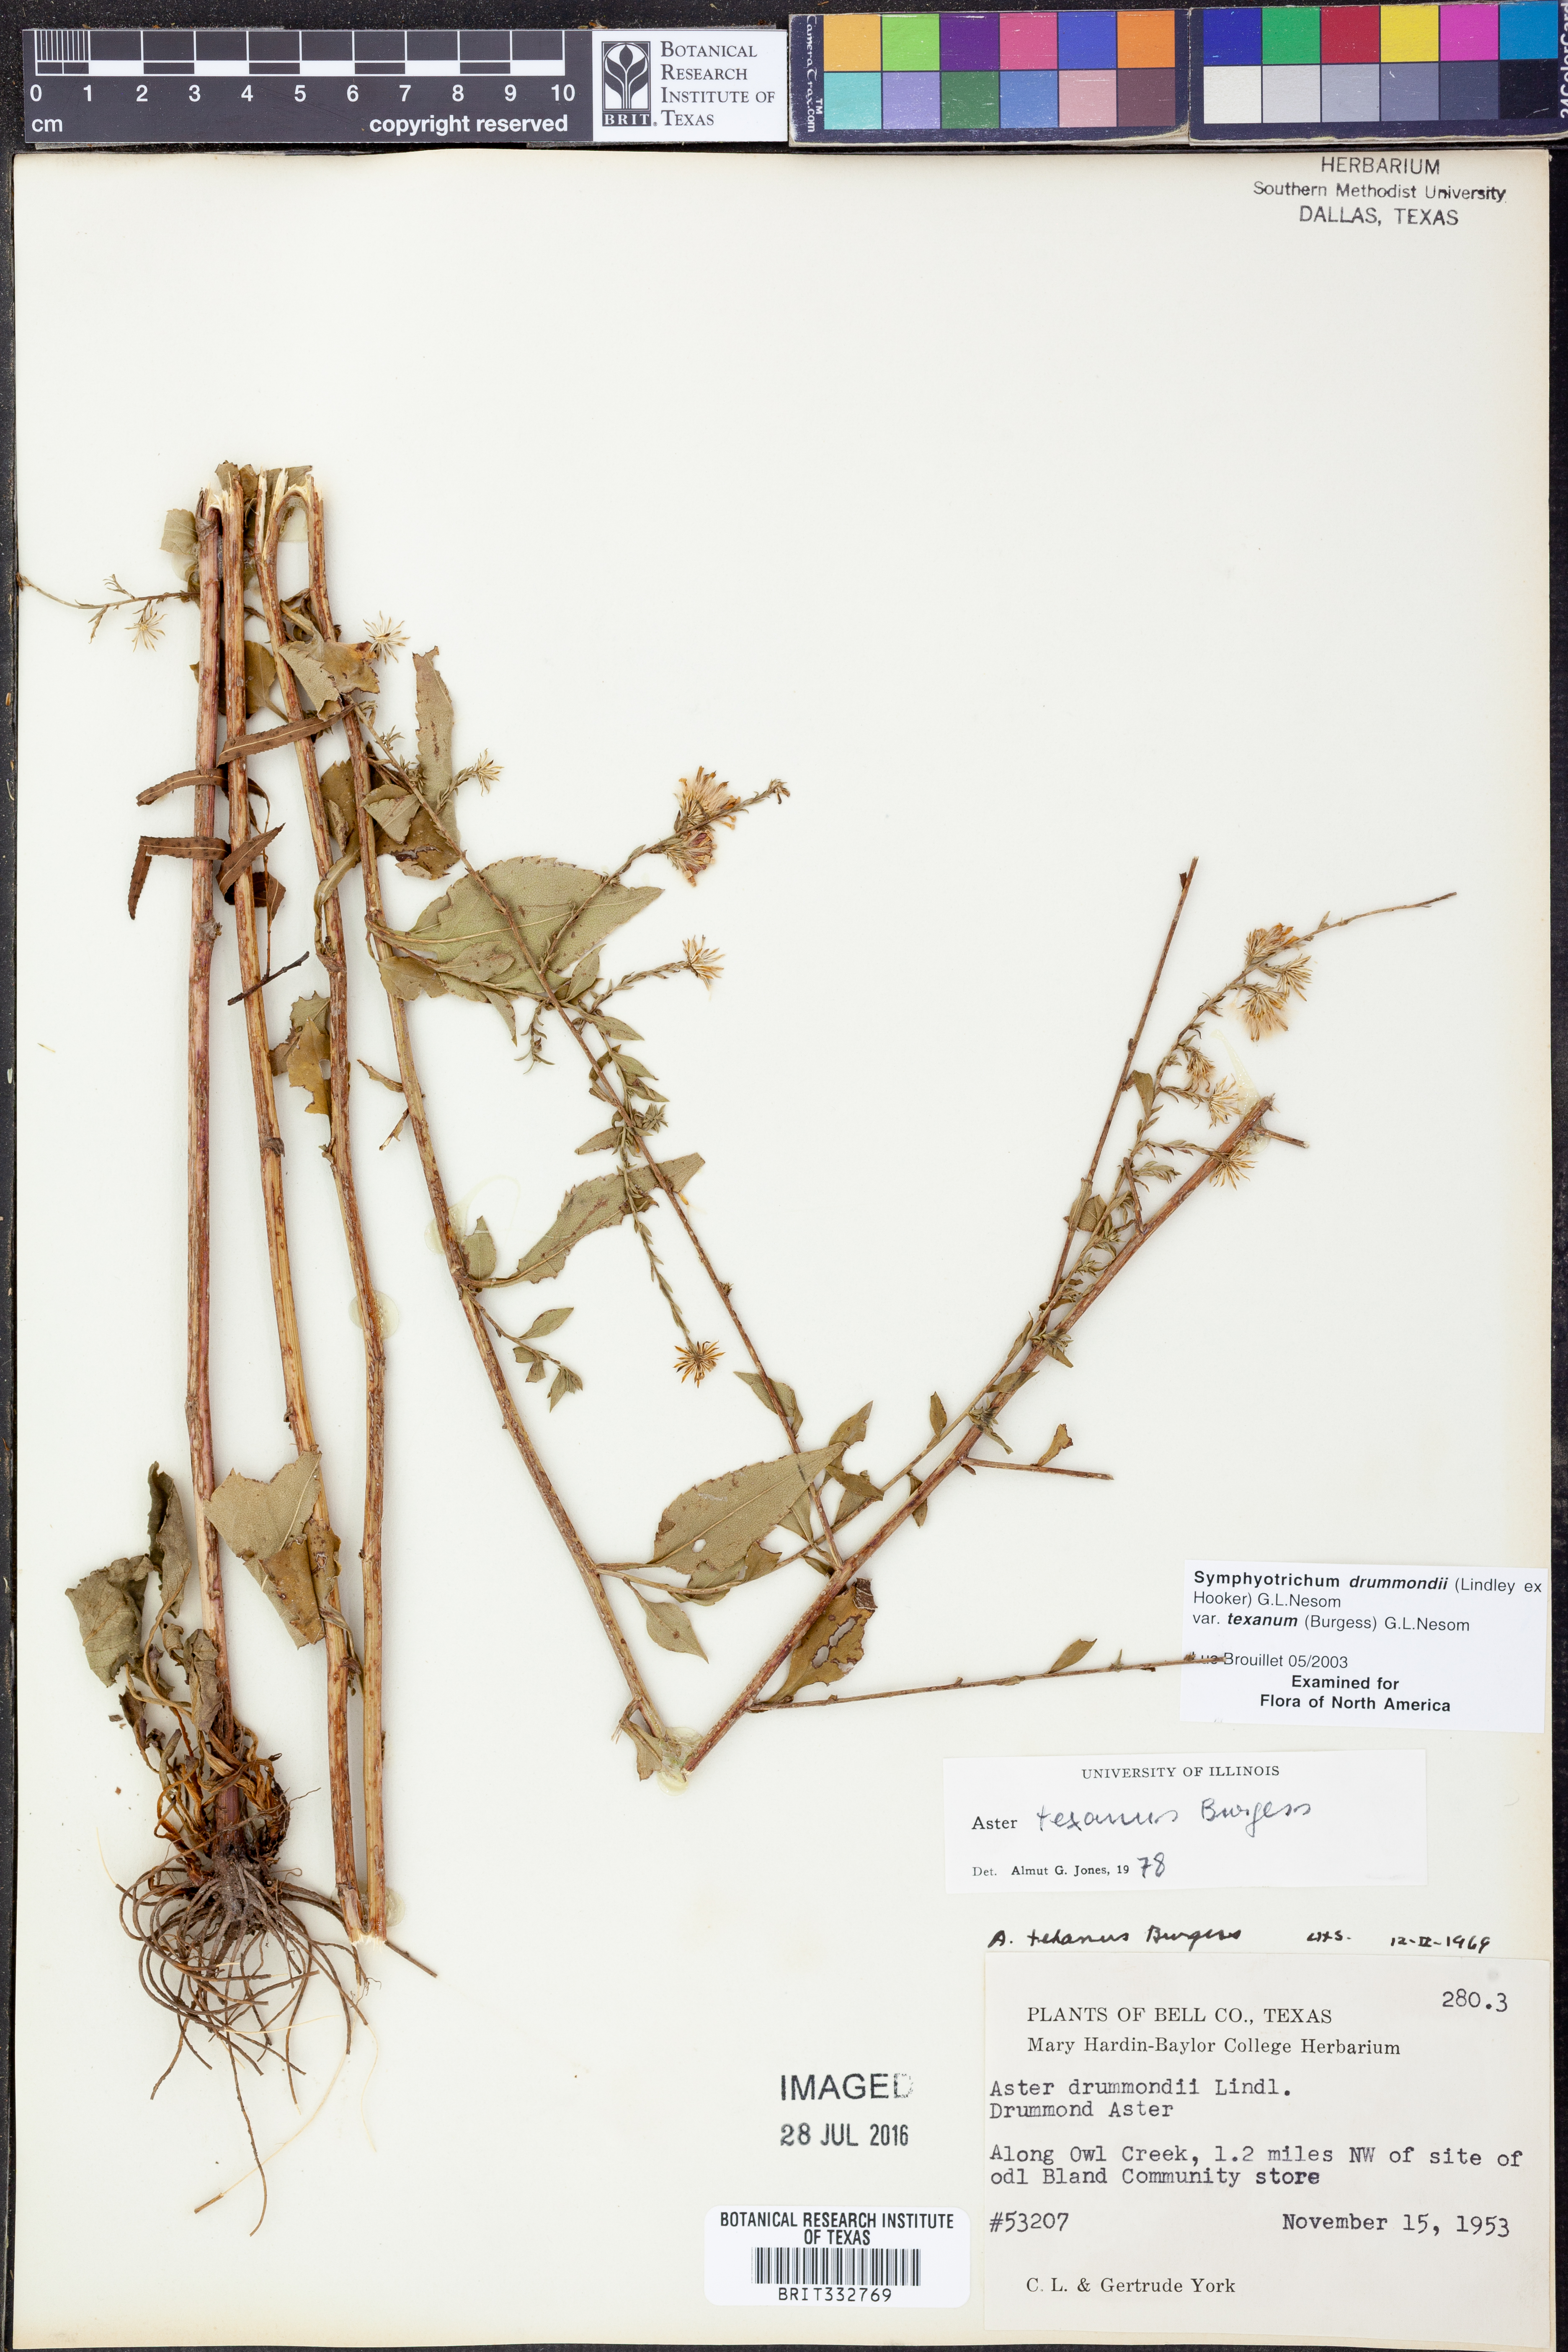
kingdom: Plantae
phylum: Tracheophyta
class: Magnoliopsida
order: Asterales
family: Asteraceae
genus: Symphyotrichum
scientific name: Symphyotrichum drummondii
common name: Drummond's aster
